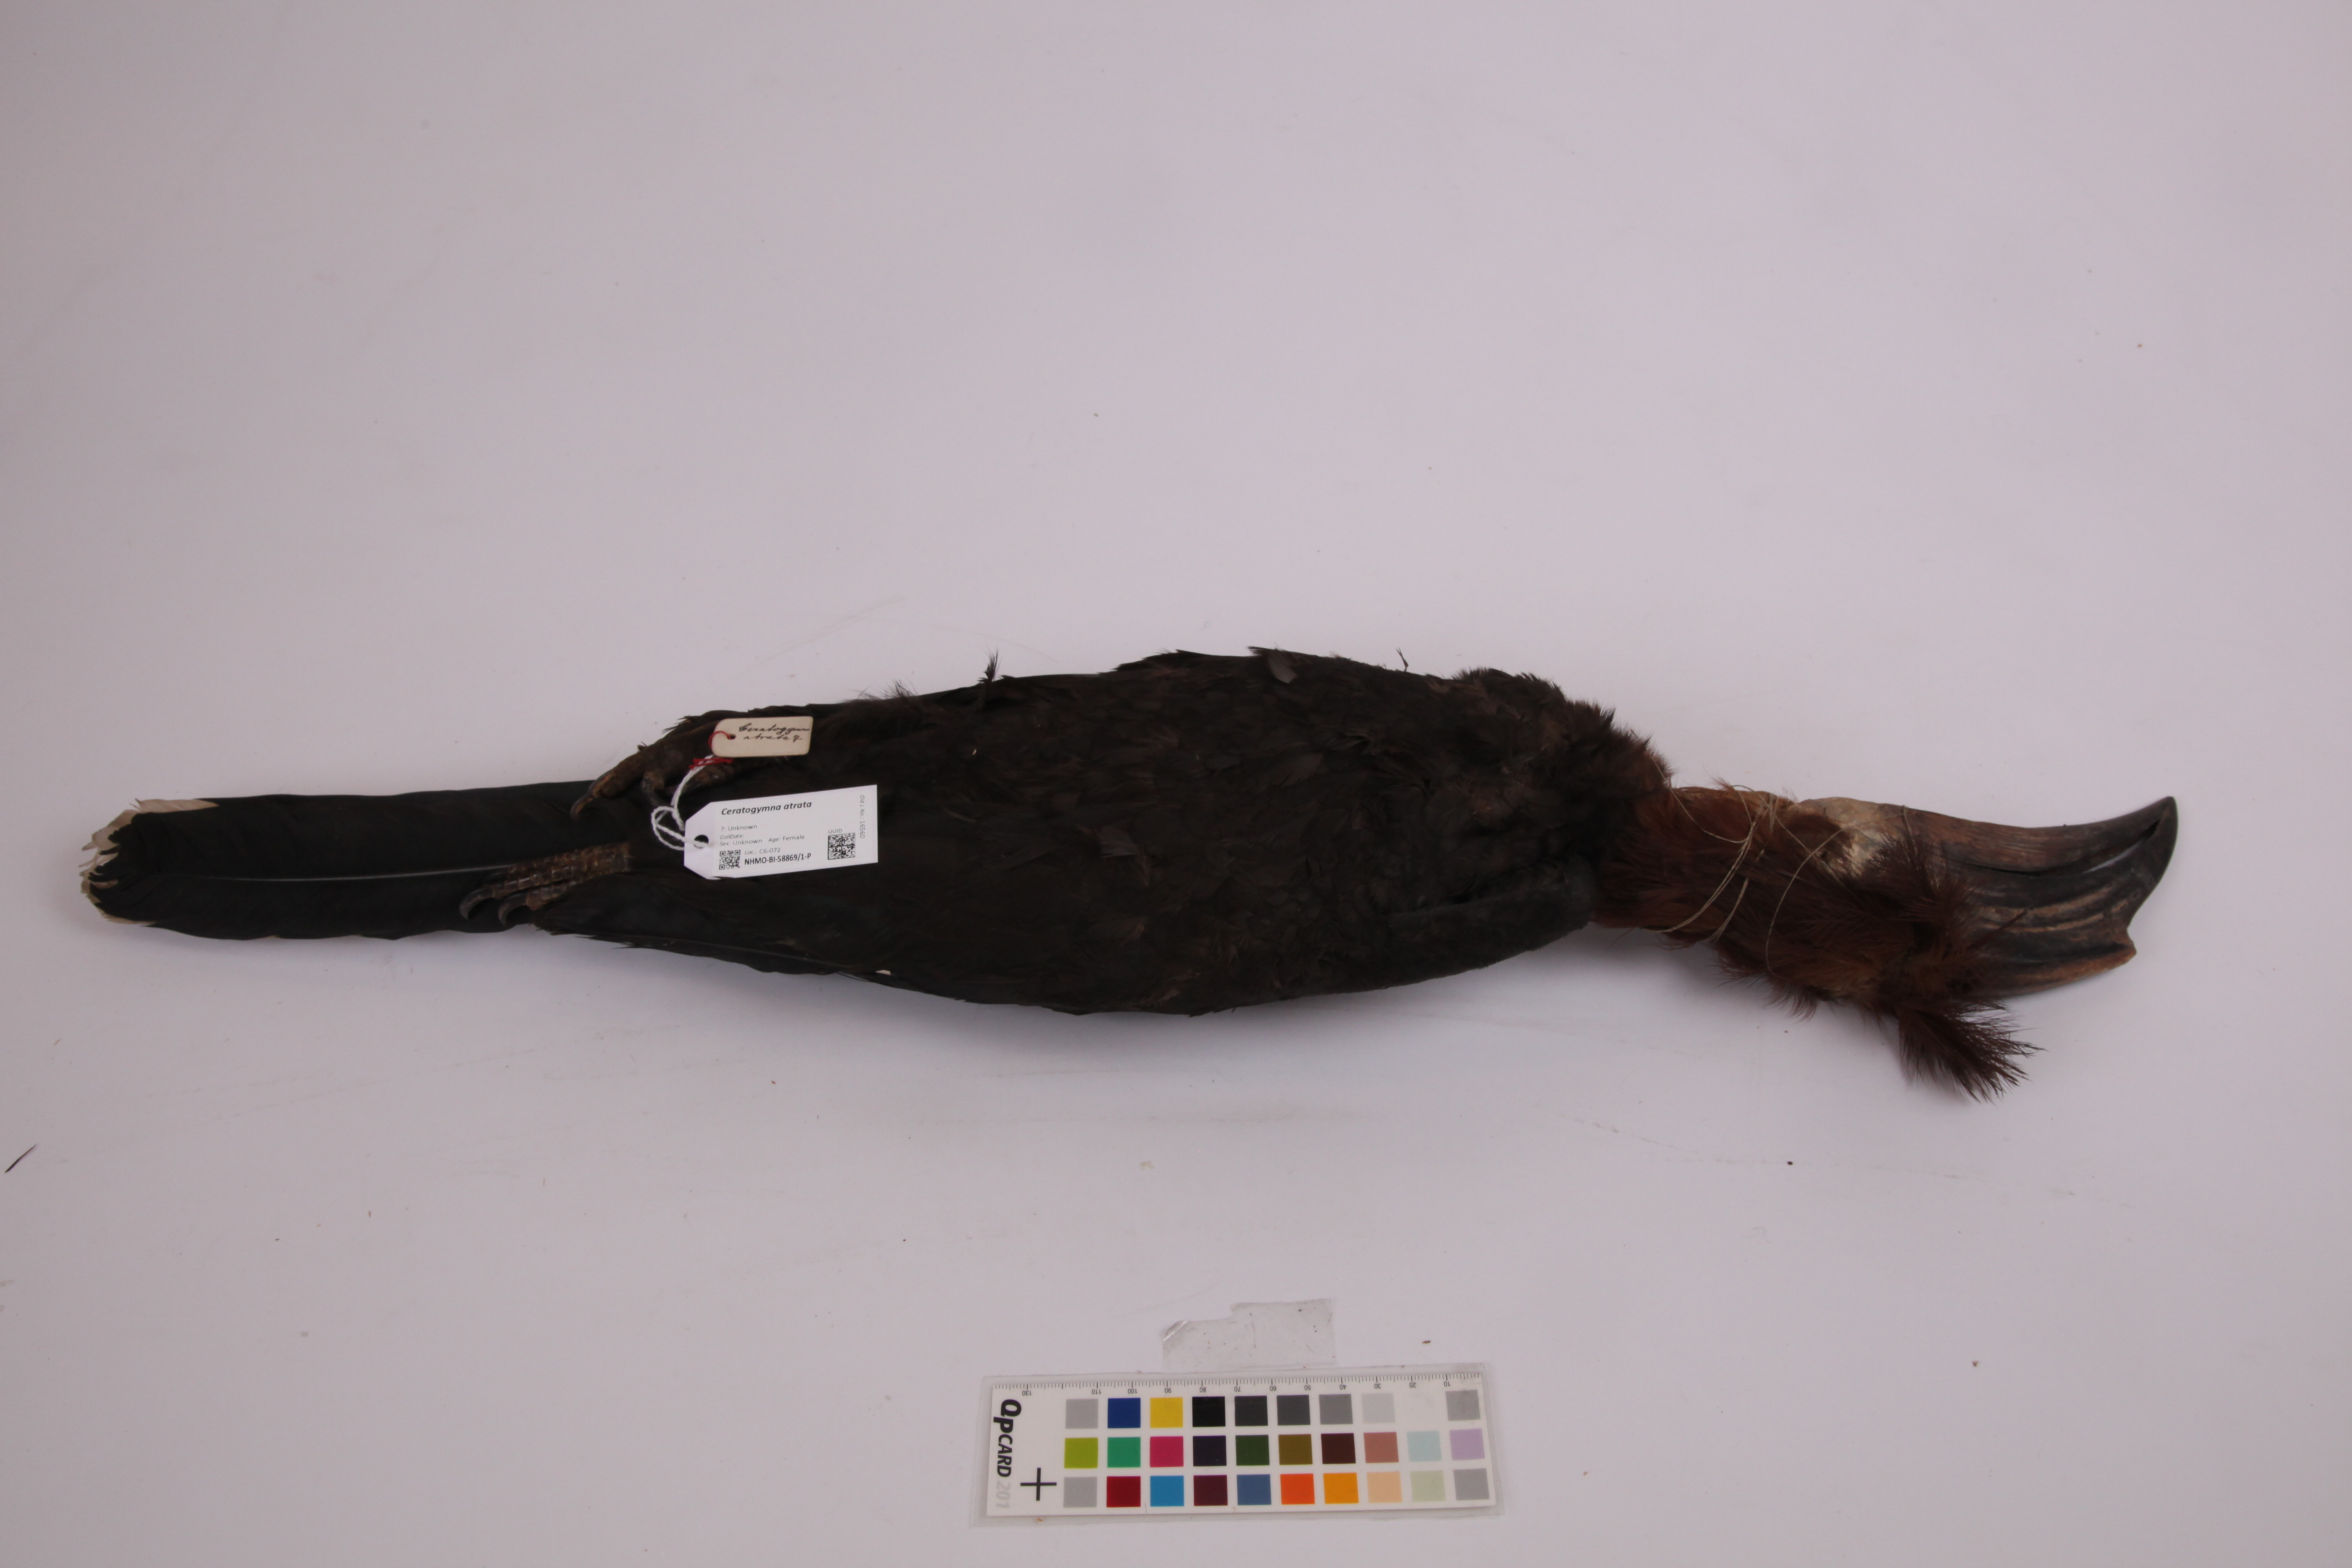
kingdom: Animalia
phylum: Chordata
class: Aves
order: Bucerotiformes
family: Bucerotidae
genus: Ceratogymna
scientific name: Ceratogymna atrata
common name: Black-casqued hornbill
